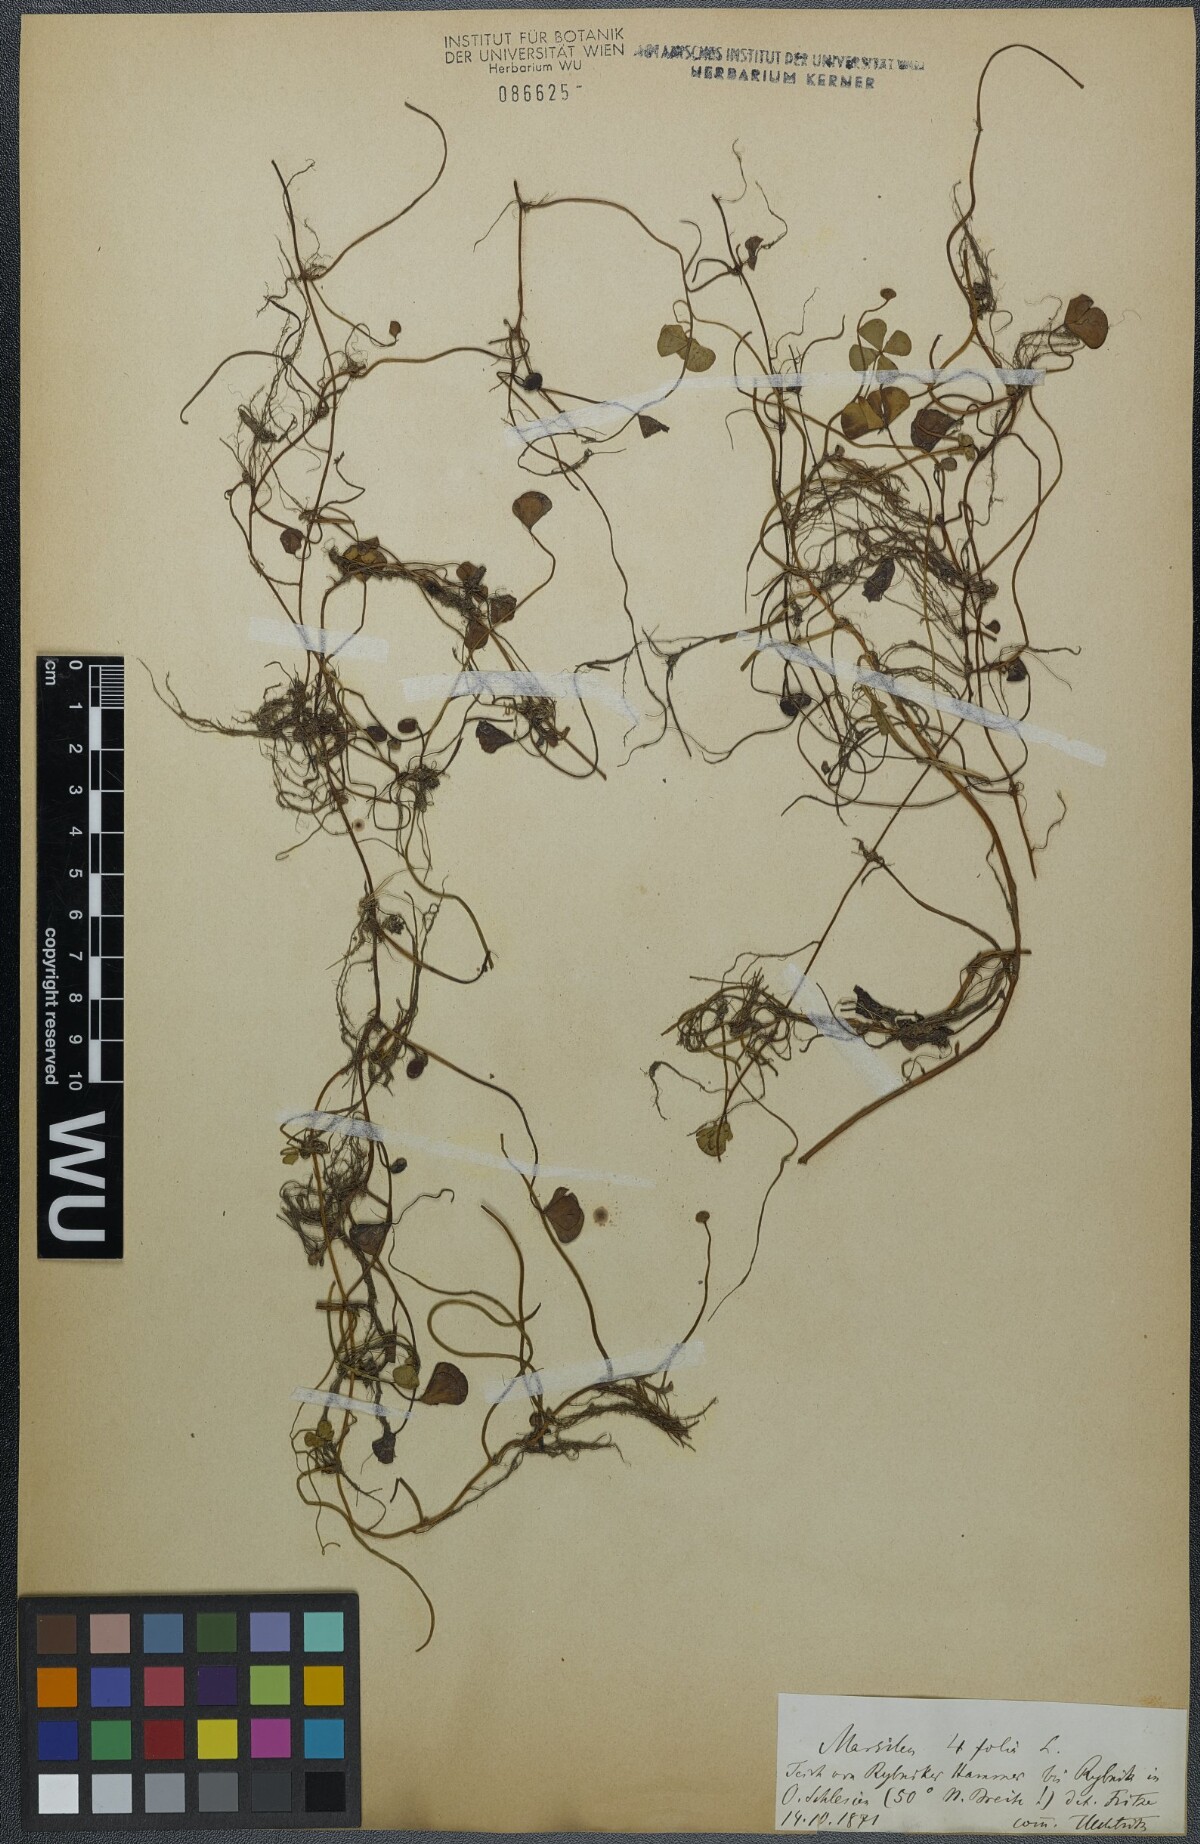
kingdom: Plantae
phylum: Tracheophyta
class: Polypodiopsida
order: Salviniales
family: Marsileaceae
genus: Marsilea
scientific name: Marsilea quadrifolia
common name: Water shamrock
